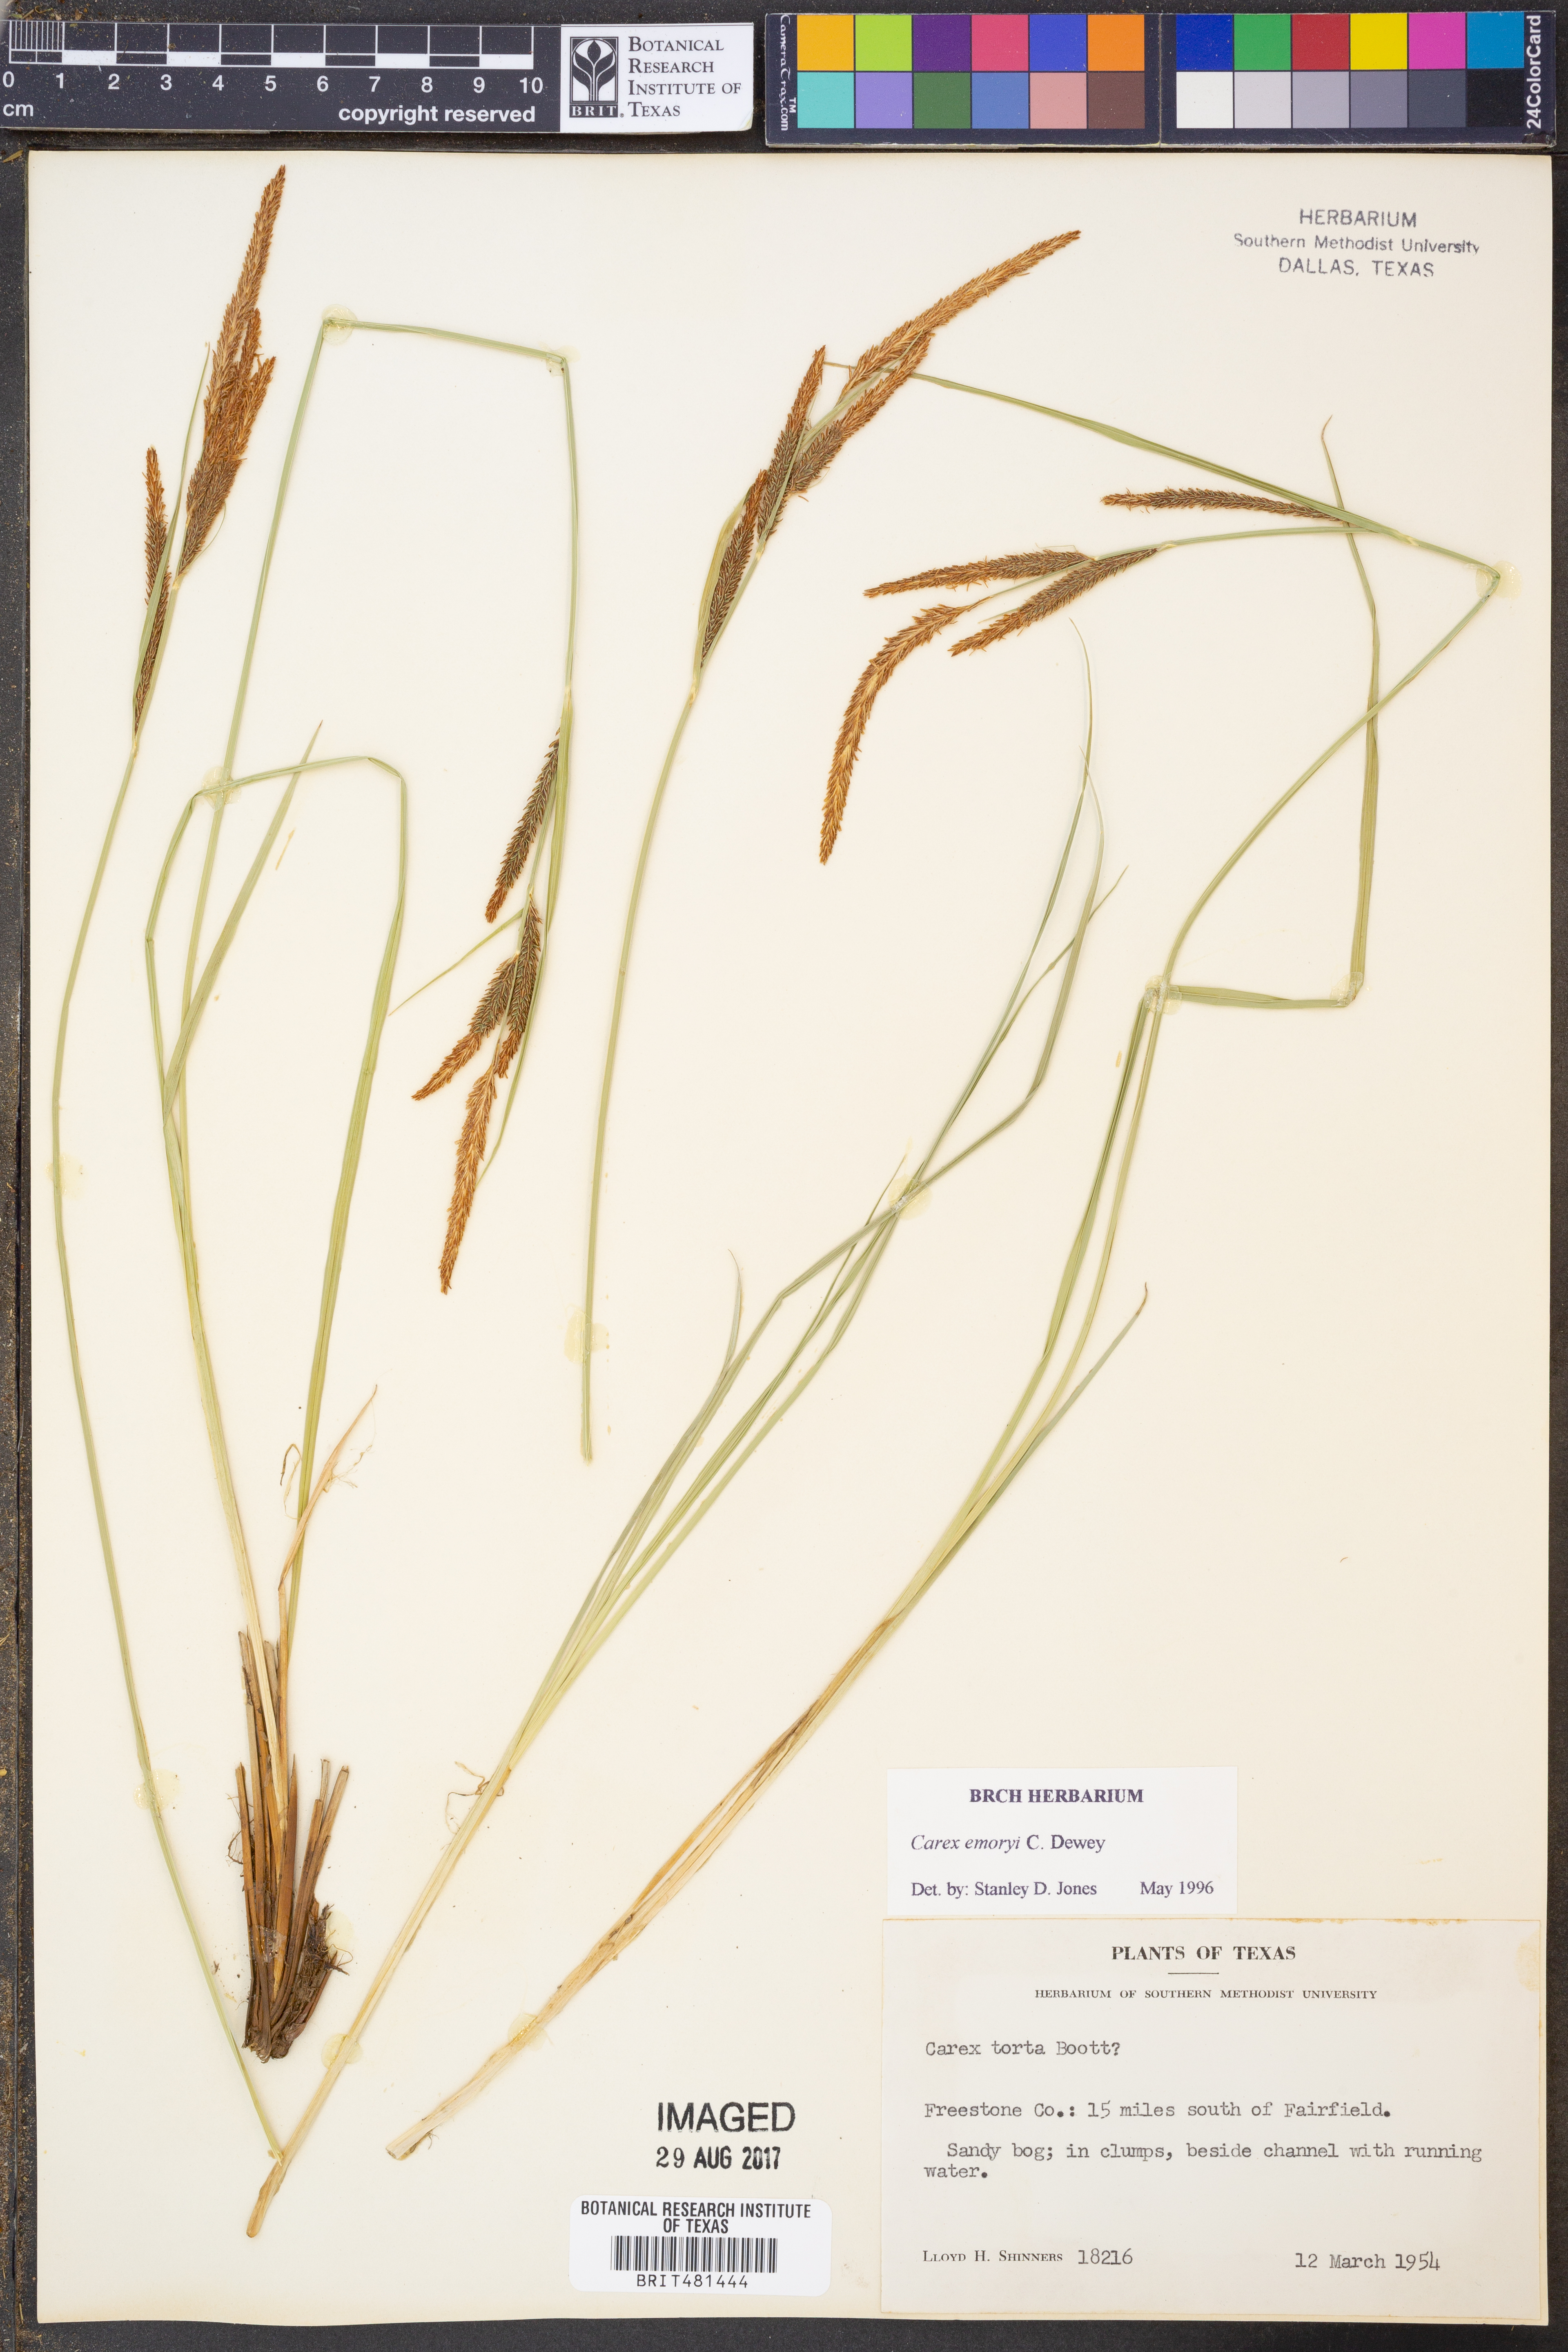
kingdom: Plantae
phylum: Tracheophyta
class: Liliopsida
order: Poales
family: Cyperaceae
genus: Carex
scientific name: Carex emoryi
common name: Emory's sedge
